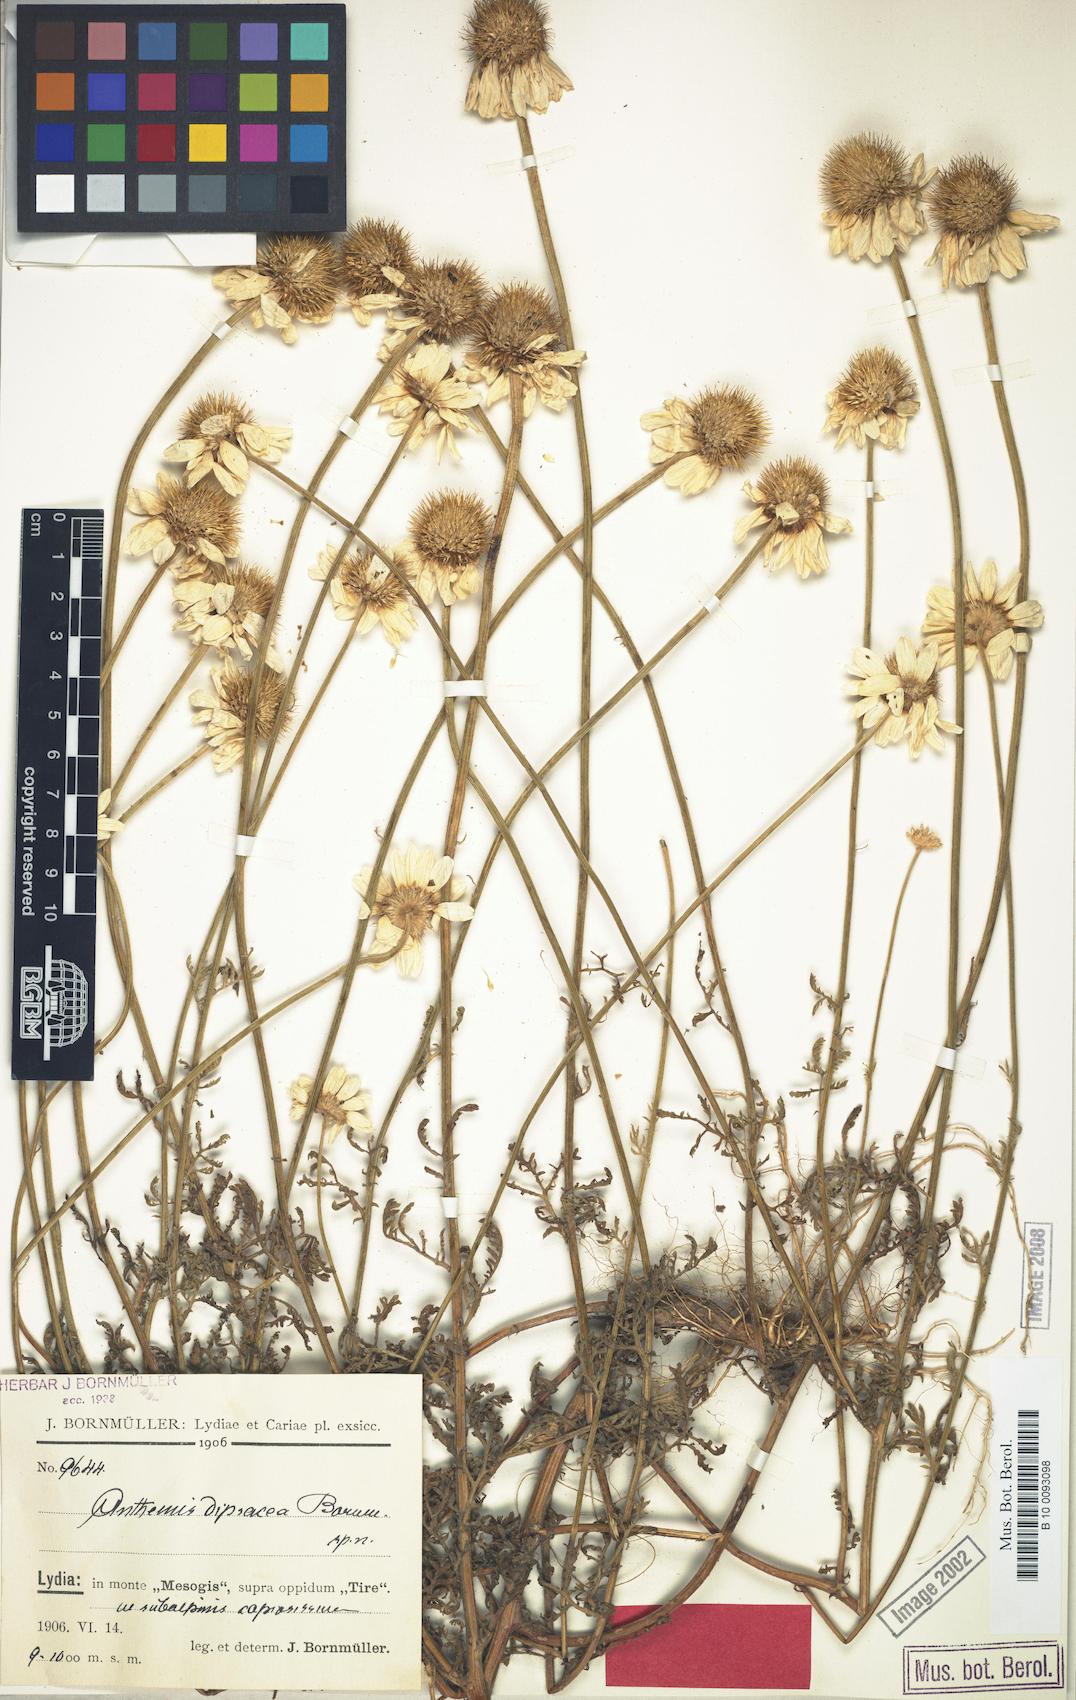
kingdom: Plantae
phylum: Tracheophyta
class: Magnoliopsida
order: Asterales
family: Asteraceae
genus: Cota
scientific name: Cota dipsacea
